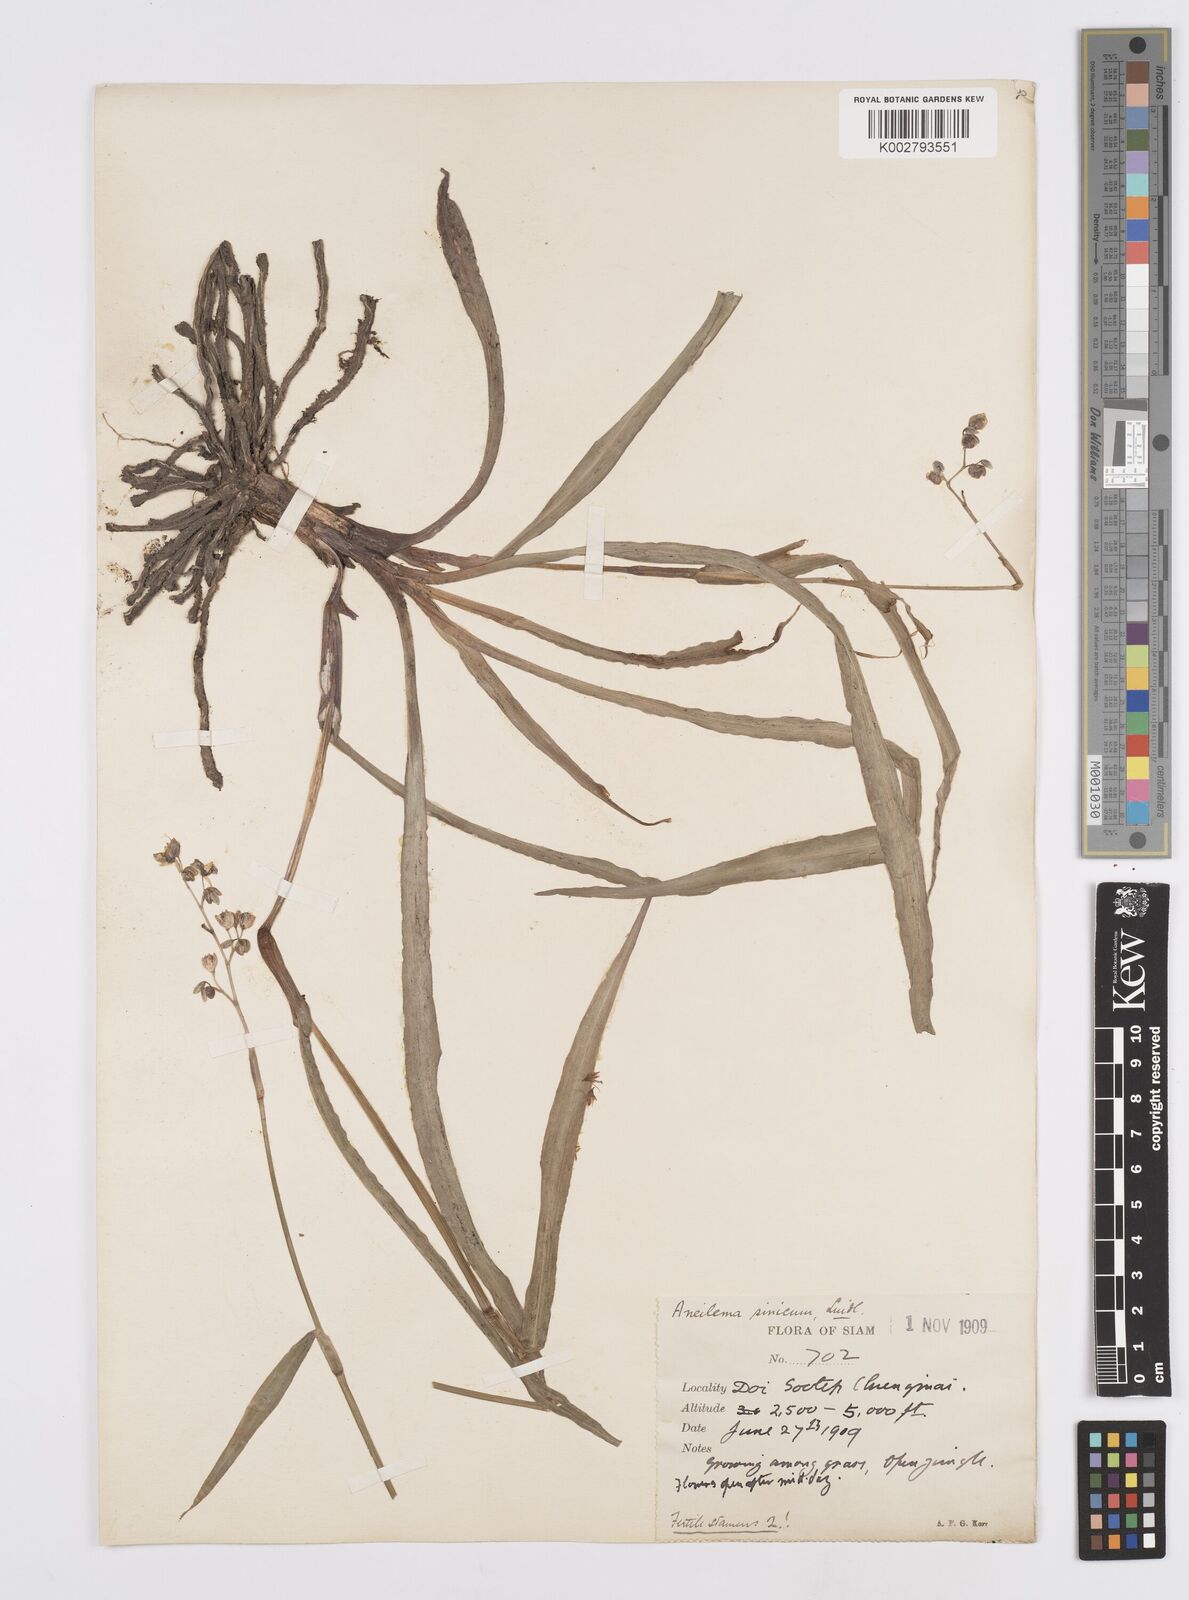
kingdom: Plantae
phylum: Tracheophyta
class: Liliopsida
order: Commelinales
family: Commelinaceae
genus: Murdannia
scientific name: Murdannia simplex
